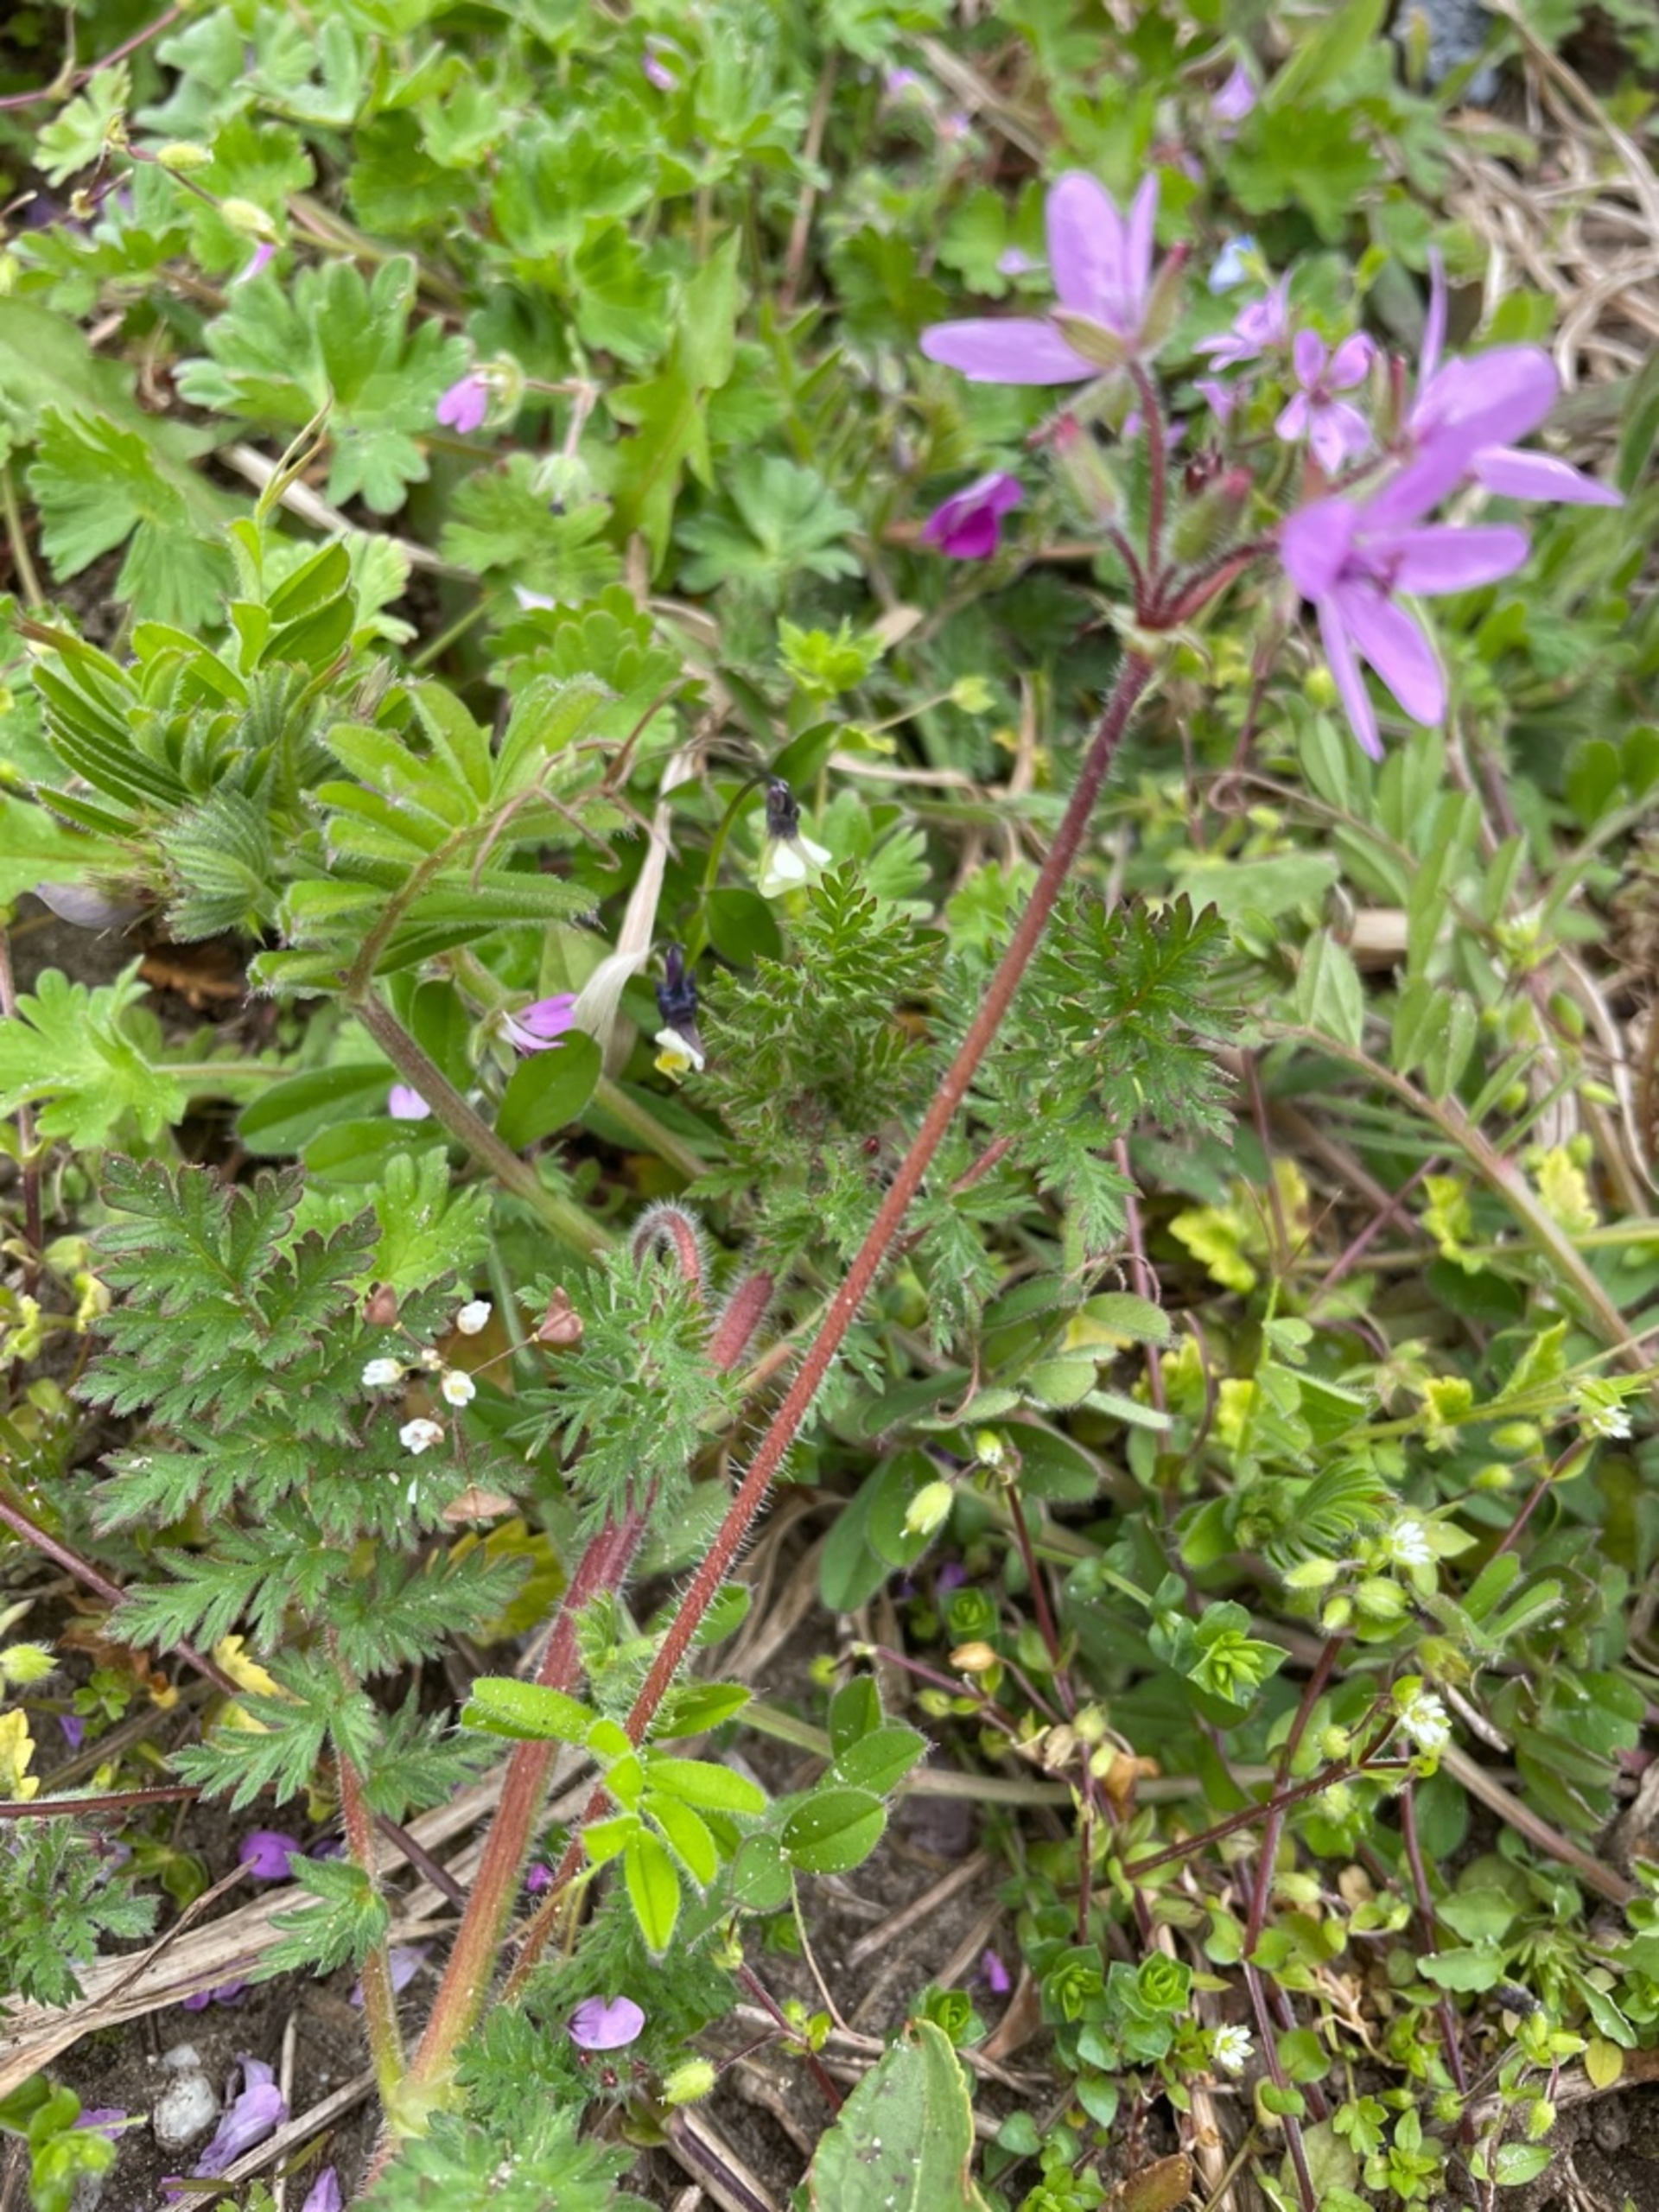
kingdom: Plantae
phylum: Tracheophyta
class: Magnoliopsida
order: Geraniales
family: Geraniaceae
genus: Erodium
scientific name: Erodium cicutarium
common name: Hejrenæb
